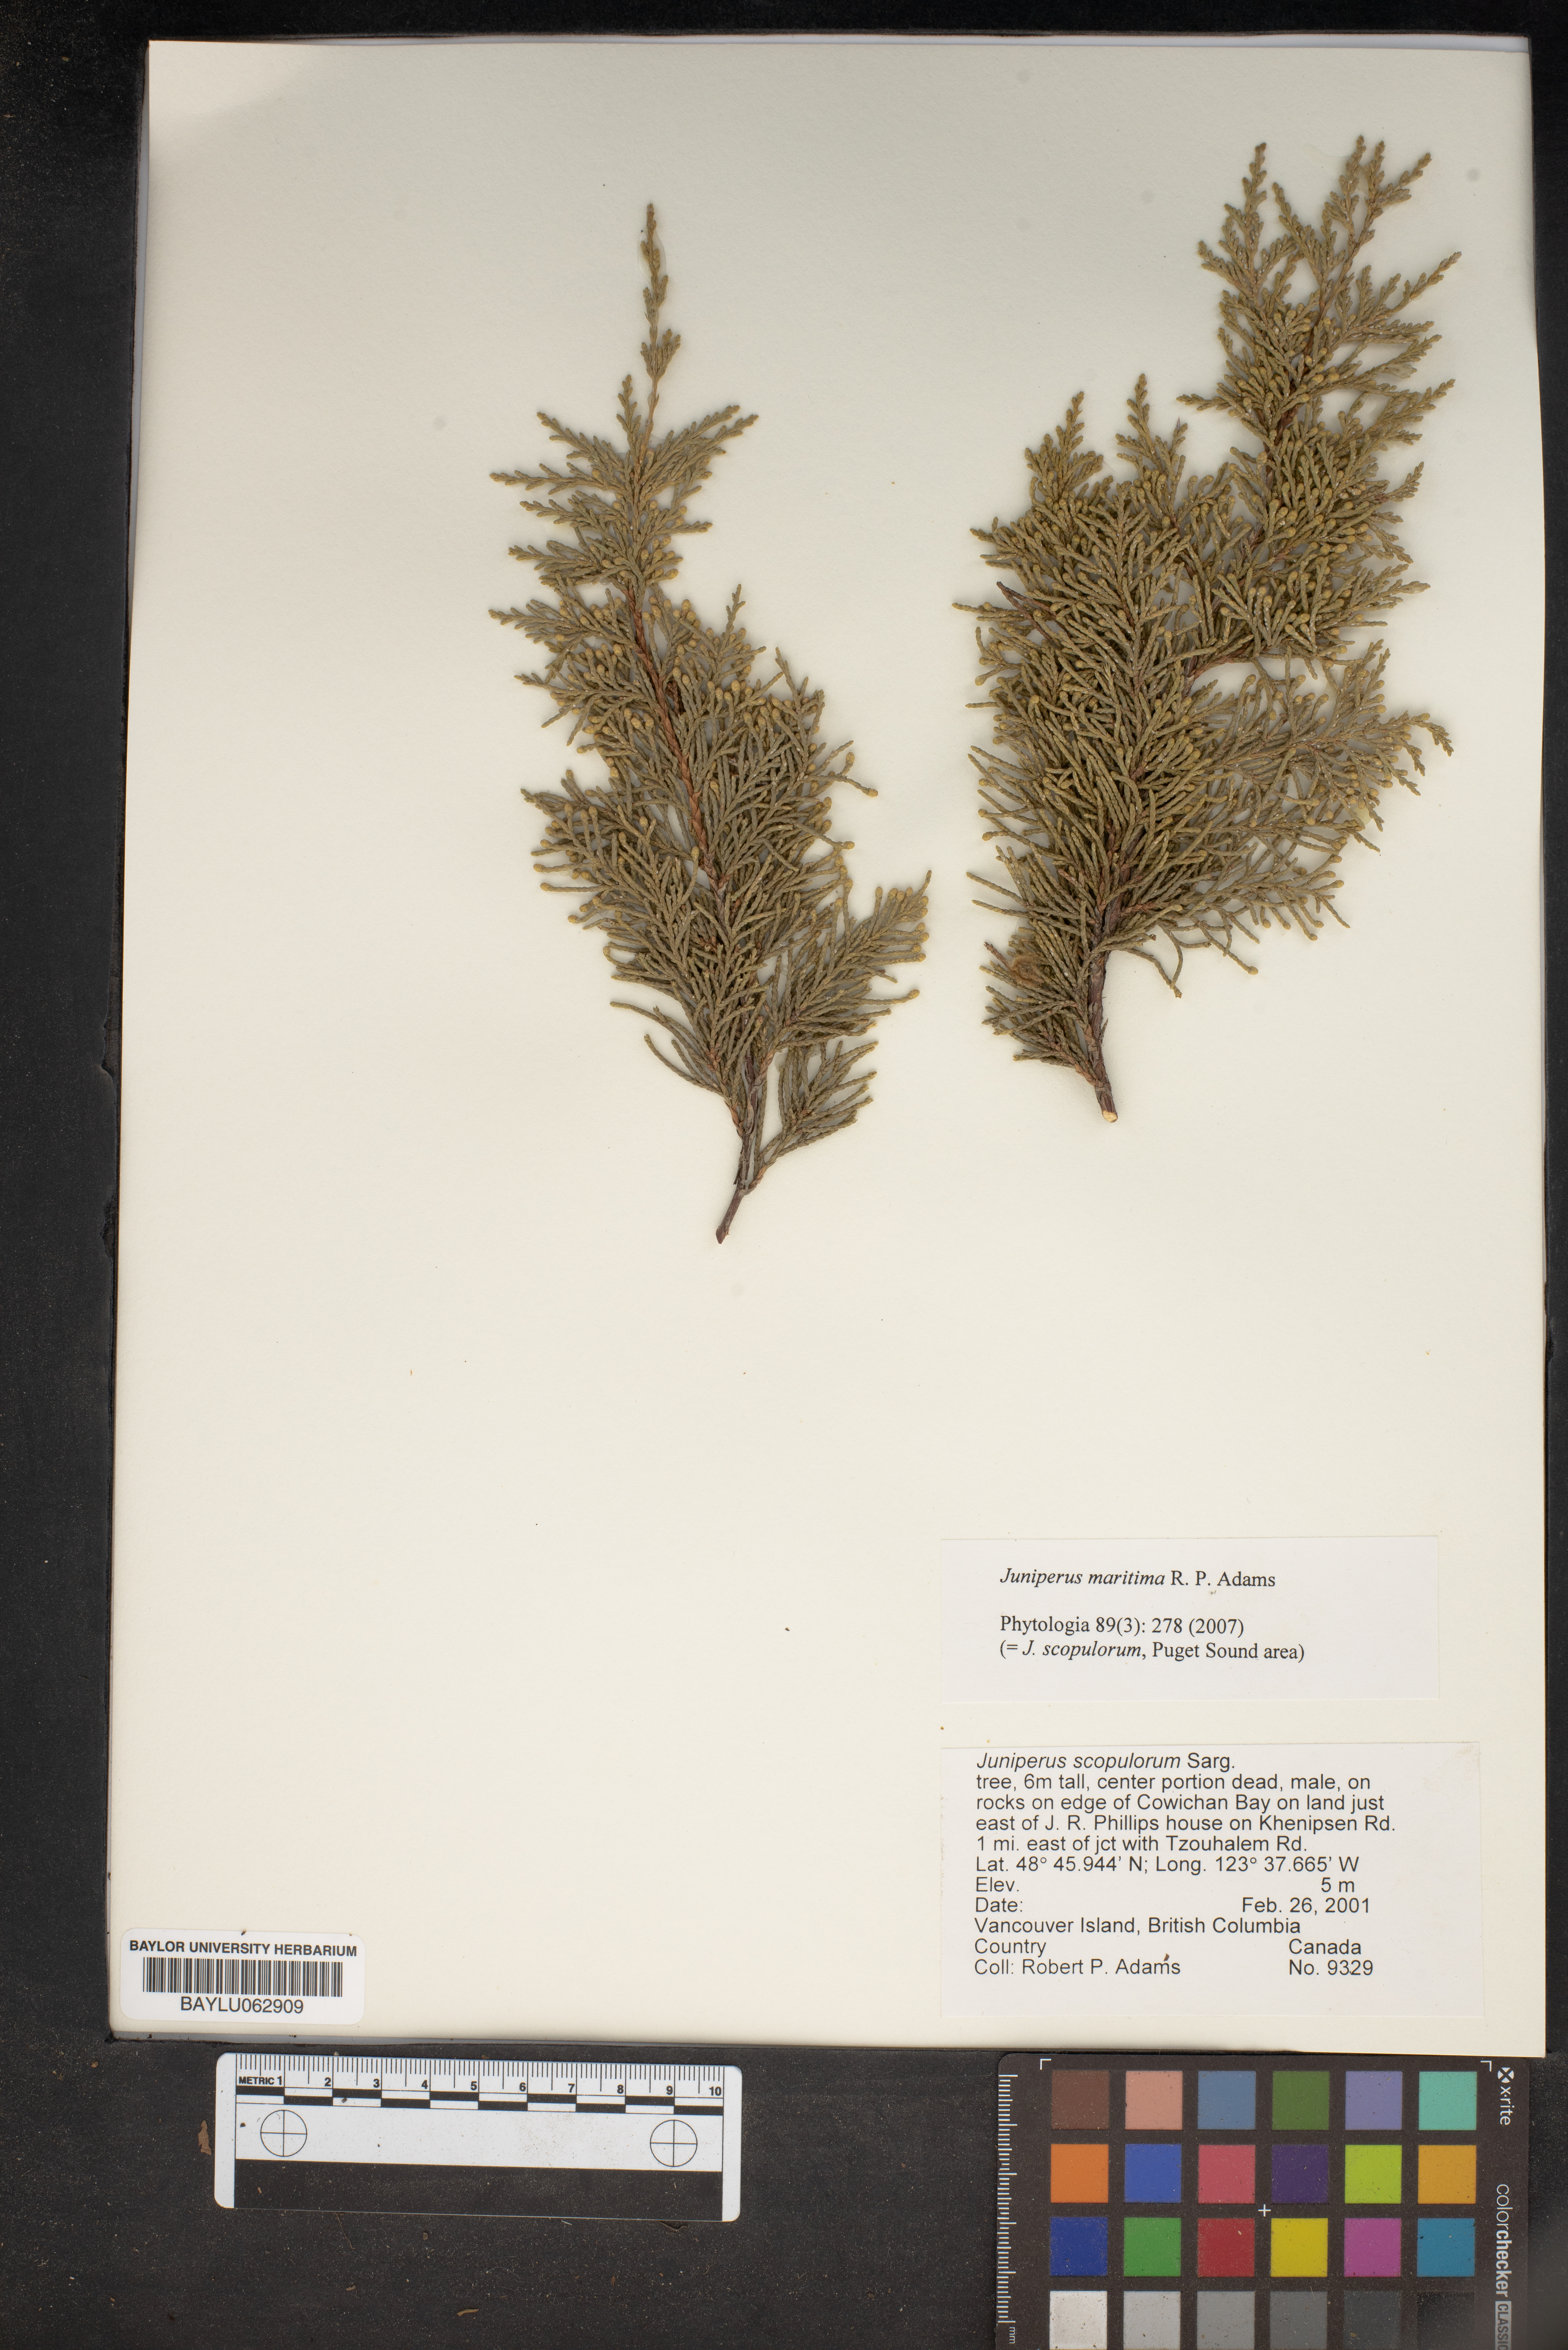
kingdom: Plantae
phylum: Tracheophyta
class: Pinopsida
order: Pinales
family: Cupressaceae
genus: Juniperus
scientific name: Juniperus scopulorum
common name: Rocky mountain juniper
